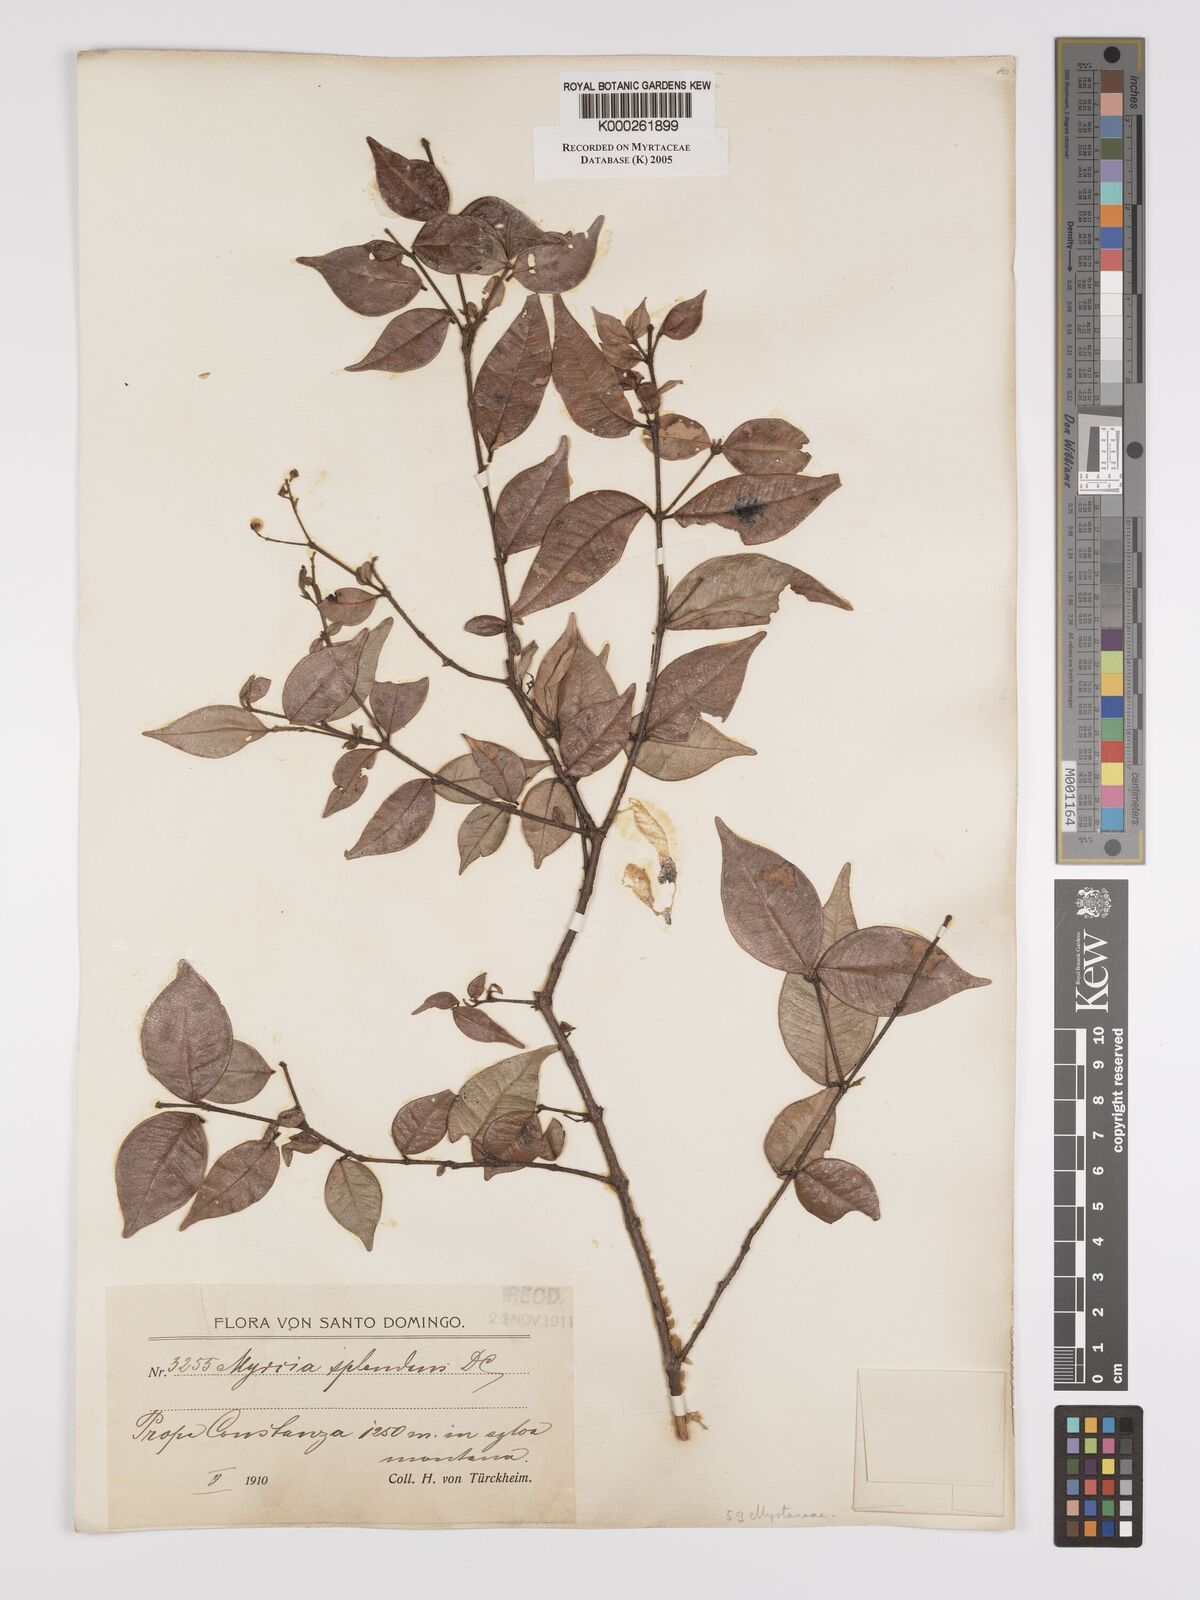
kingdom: Plantae
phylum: Tracheophyta
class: Magnoliopsida
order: Myrtales
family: Myrtaceae
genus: Myrcia
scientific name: Myrcia splendens
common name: Surinam cherry
